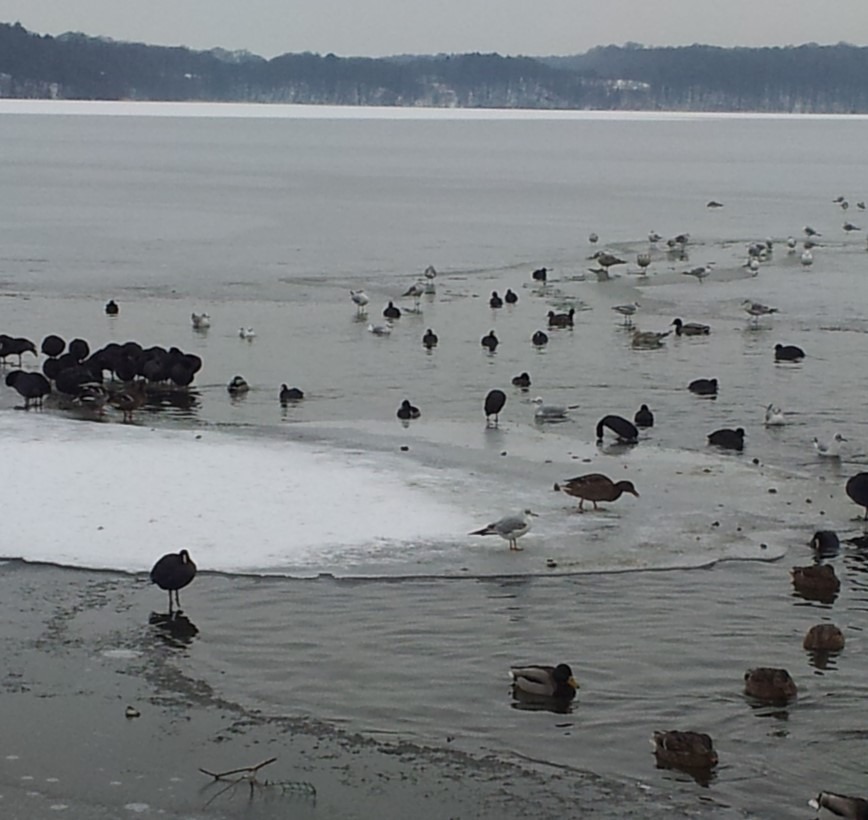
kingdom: Animalia
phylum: Chordata
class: Aves
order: Anseriformes
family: Anatidae
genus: Aythya
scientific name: Aythya collaris
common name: Halsbåndstroldand
